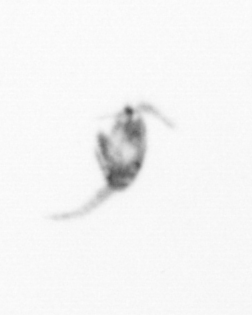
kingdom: Animalia
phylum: Arthropoda
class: Copepoda
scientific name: Copepoda
